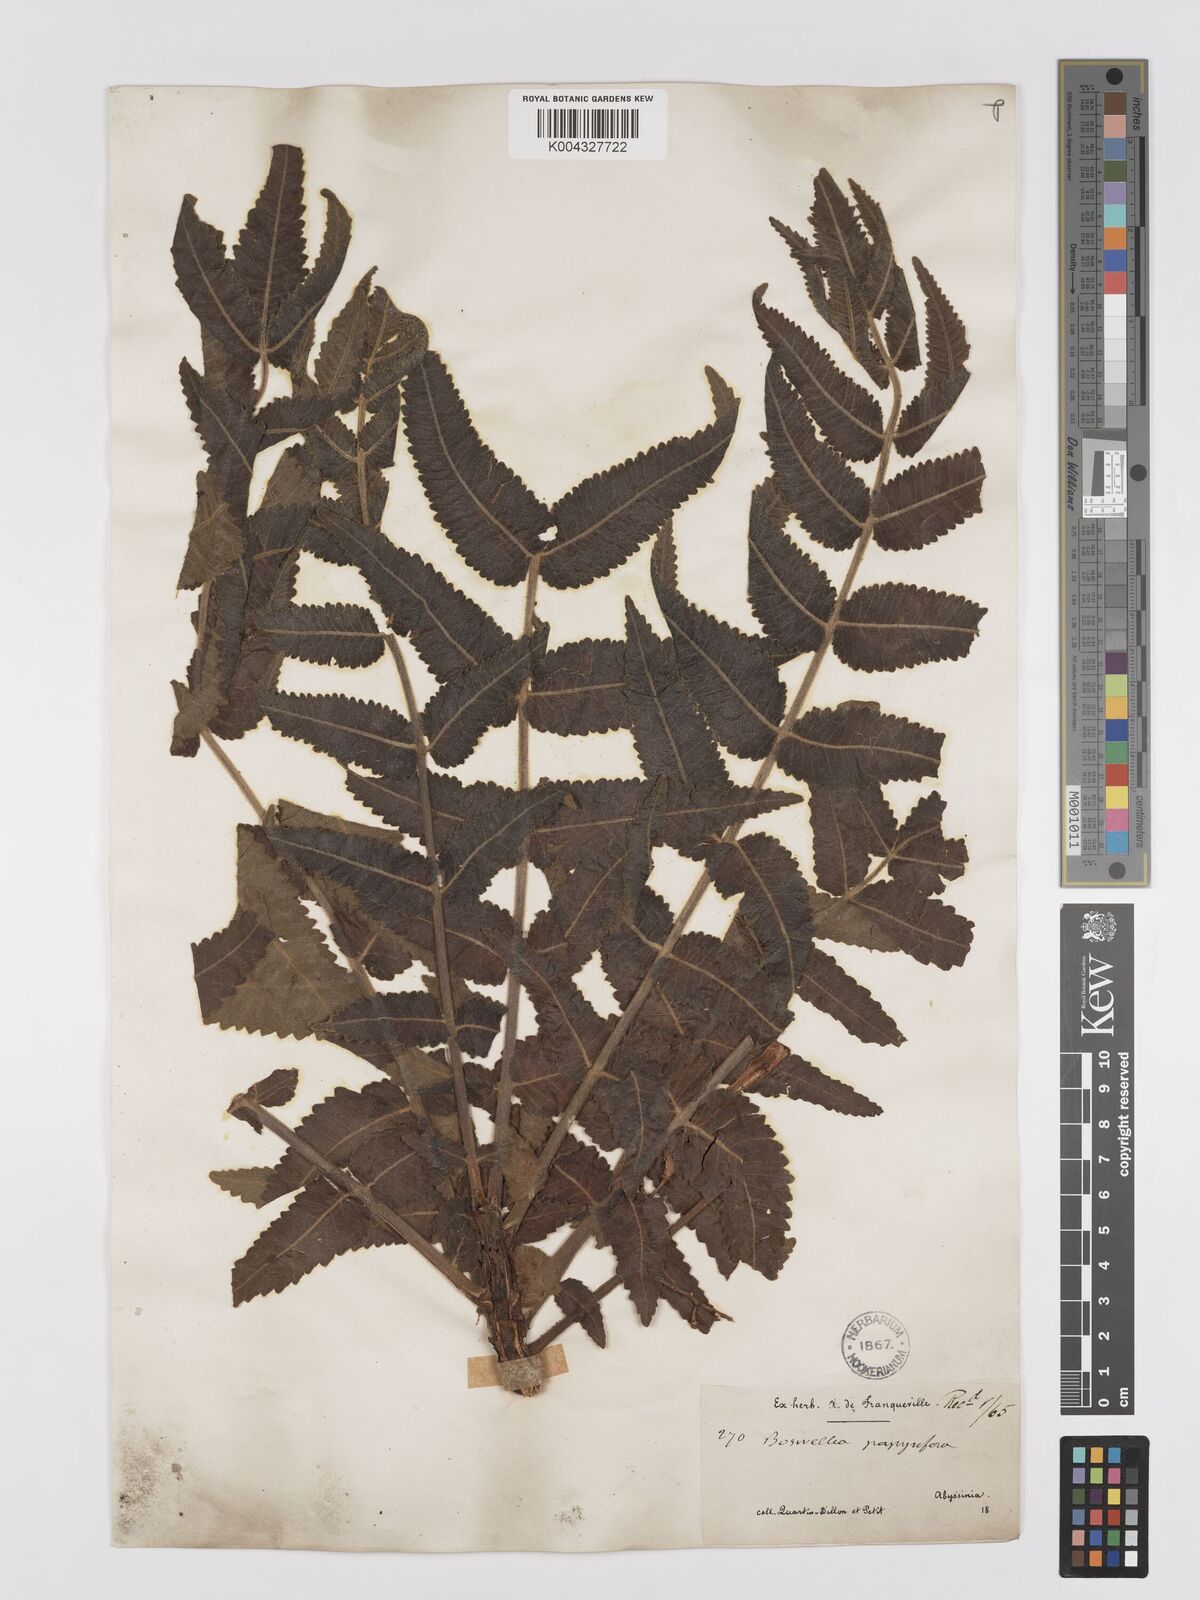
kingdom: Plantae
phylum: Tracheophyta
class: Magnoliopsida
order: Sapindales
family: Burseraceae
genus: Boswellia
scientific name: Boswellia papyrifera
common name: Sudanese frankincense
